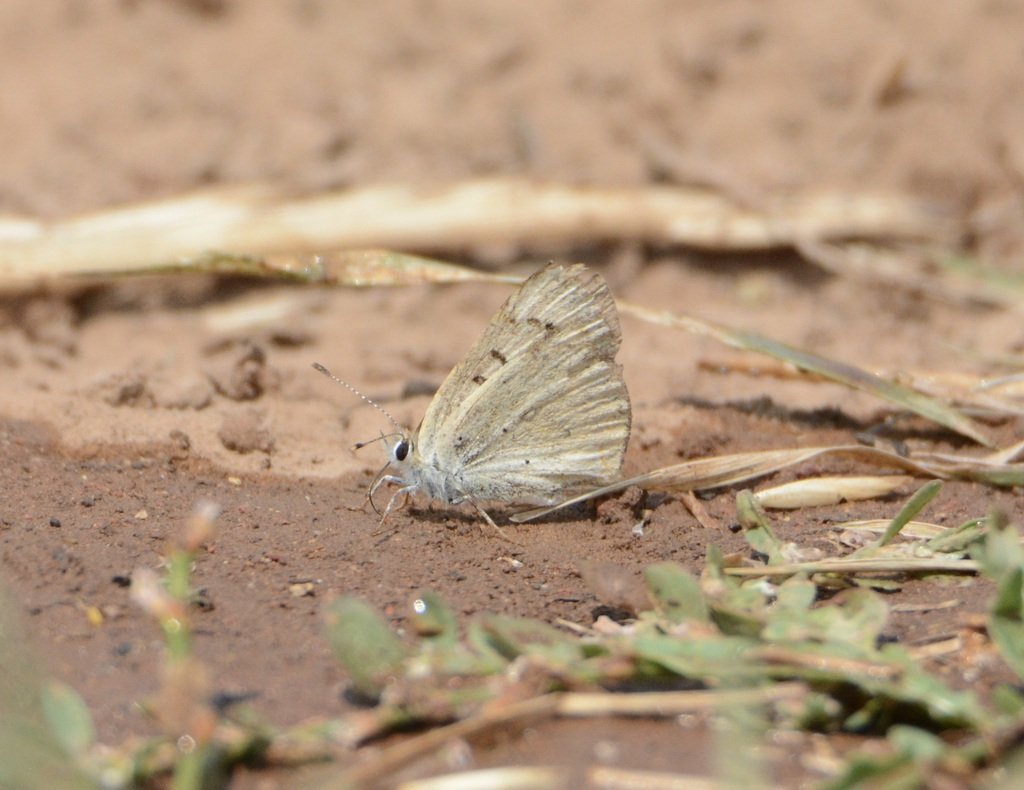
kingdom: Animalia
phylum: Arthropoda
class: Insecta
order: Lepidoptera
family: Sesiidae
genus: Sesia
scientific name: Sesia Lycaena rubidus
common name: Ruddy Copper
